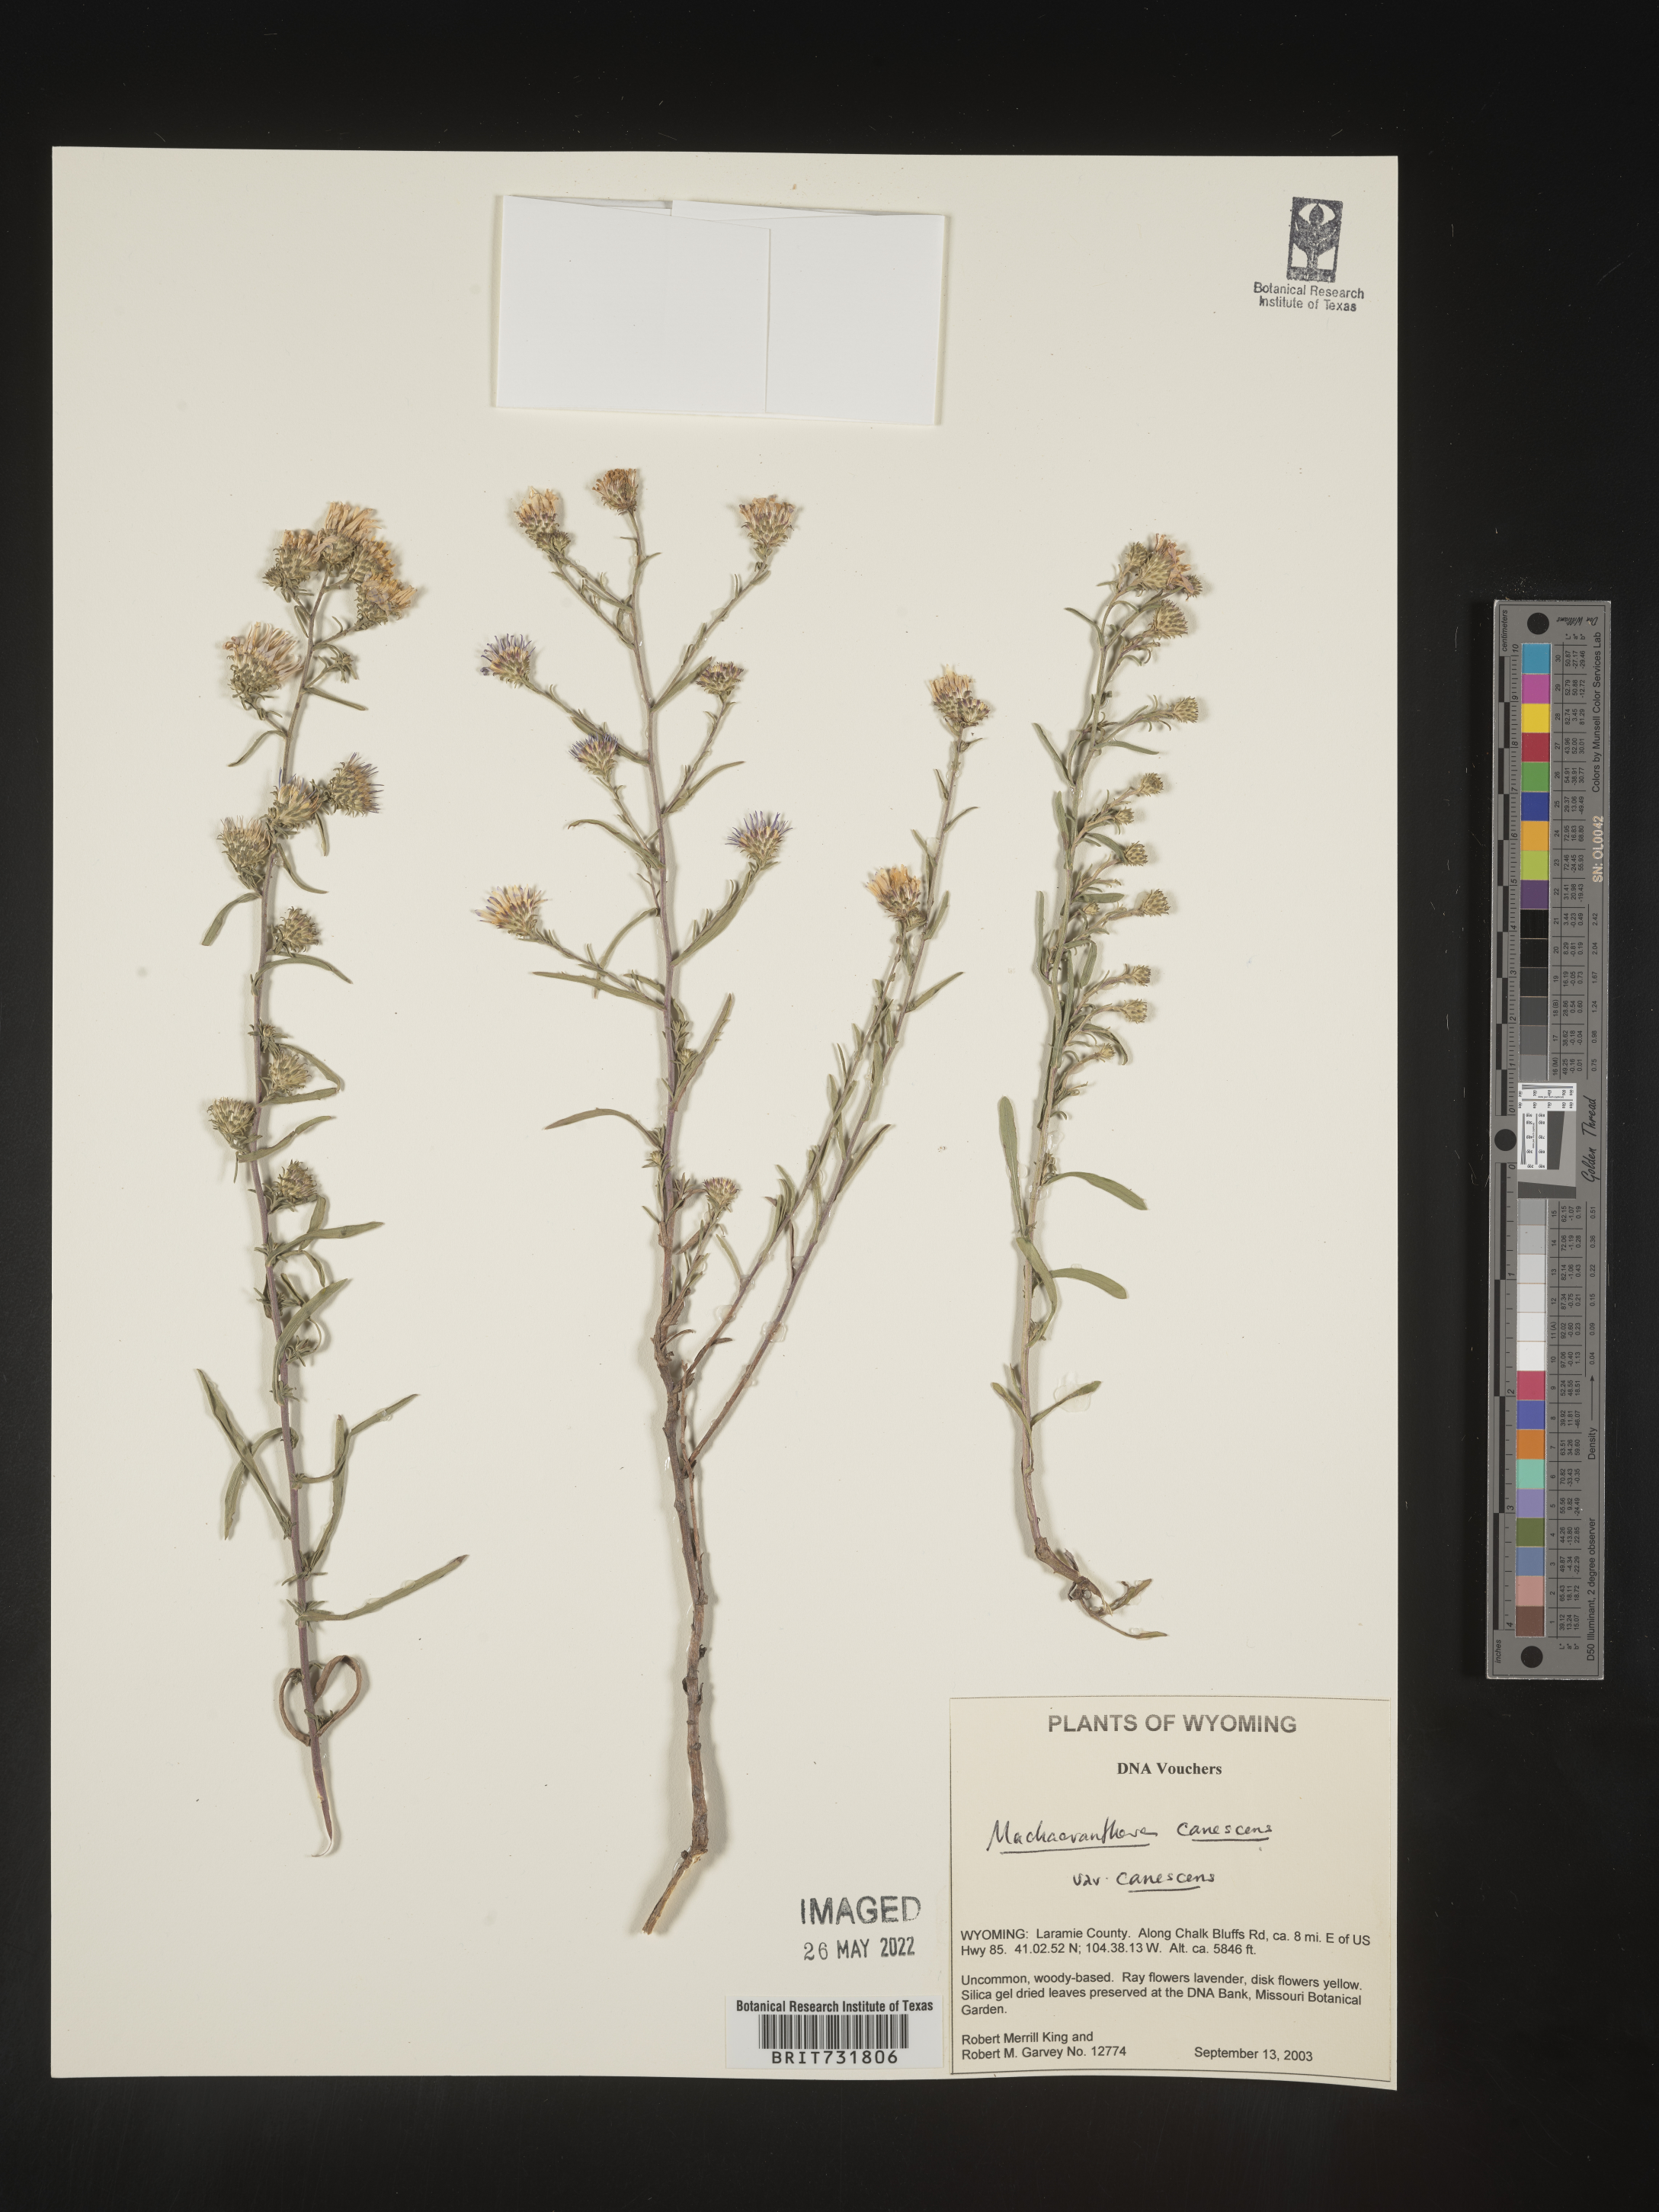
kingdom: Plantae
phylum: Tracheophyta
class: Magnoliopsida
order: Asterales
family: Asteraceae
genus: Machaeranthera
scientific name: Machaeranthera
